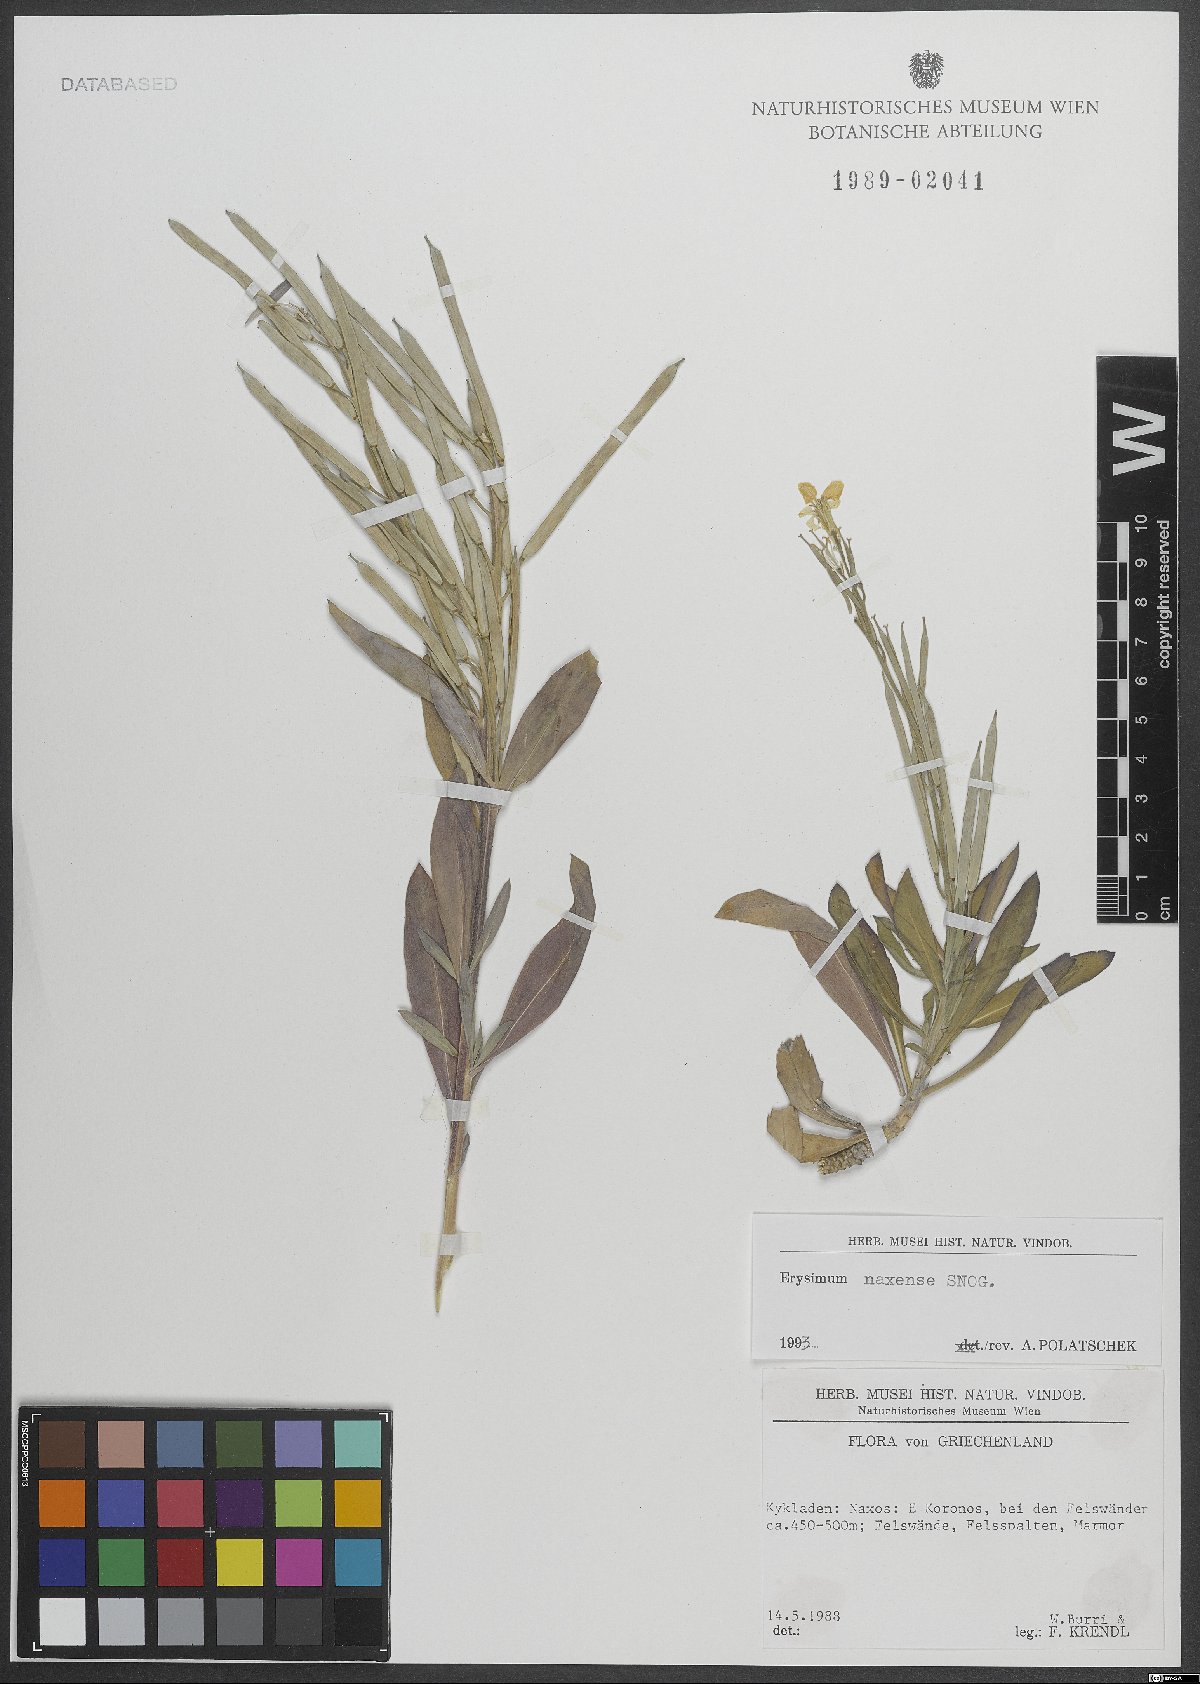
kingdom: Plantae
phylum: Tracheophyta
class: Magnoliopsida
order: Brassicales
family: Brassicaceae
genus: Erysimum
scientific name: Erysimum naxense
